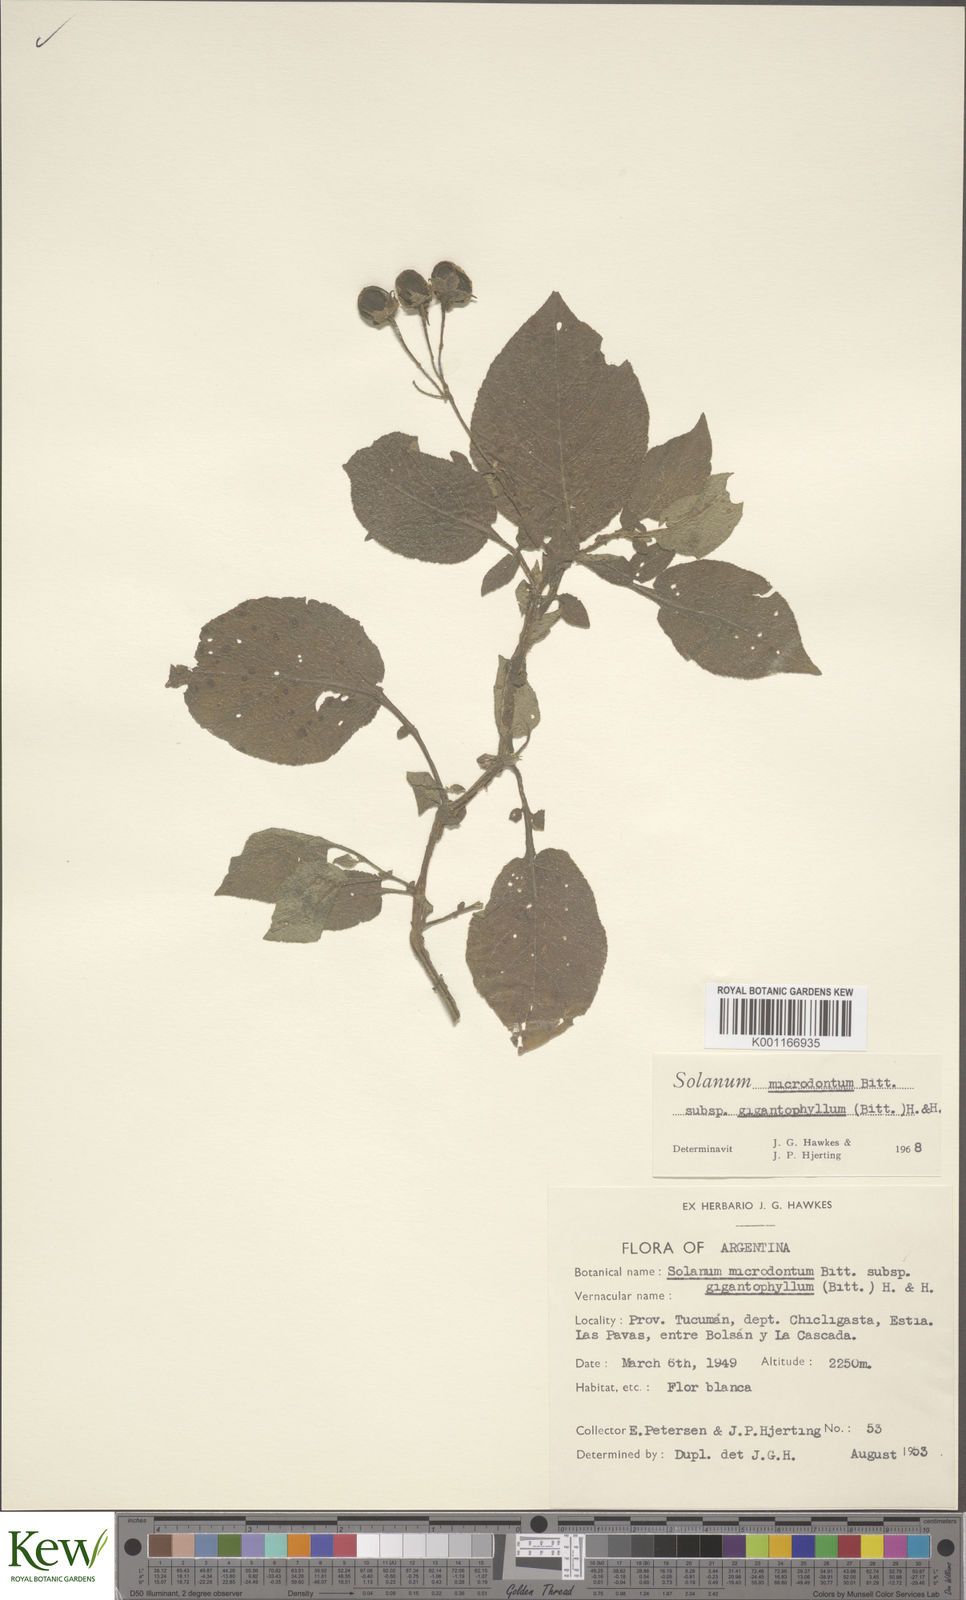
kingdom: Plantae
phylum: Tracheophyta
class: Magnoliopsida
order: Solanales
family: Solanaceae
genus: Solanum
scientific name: Solanum microdontum
